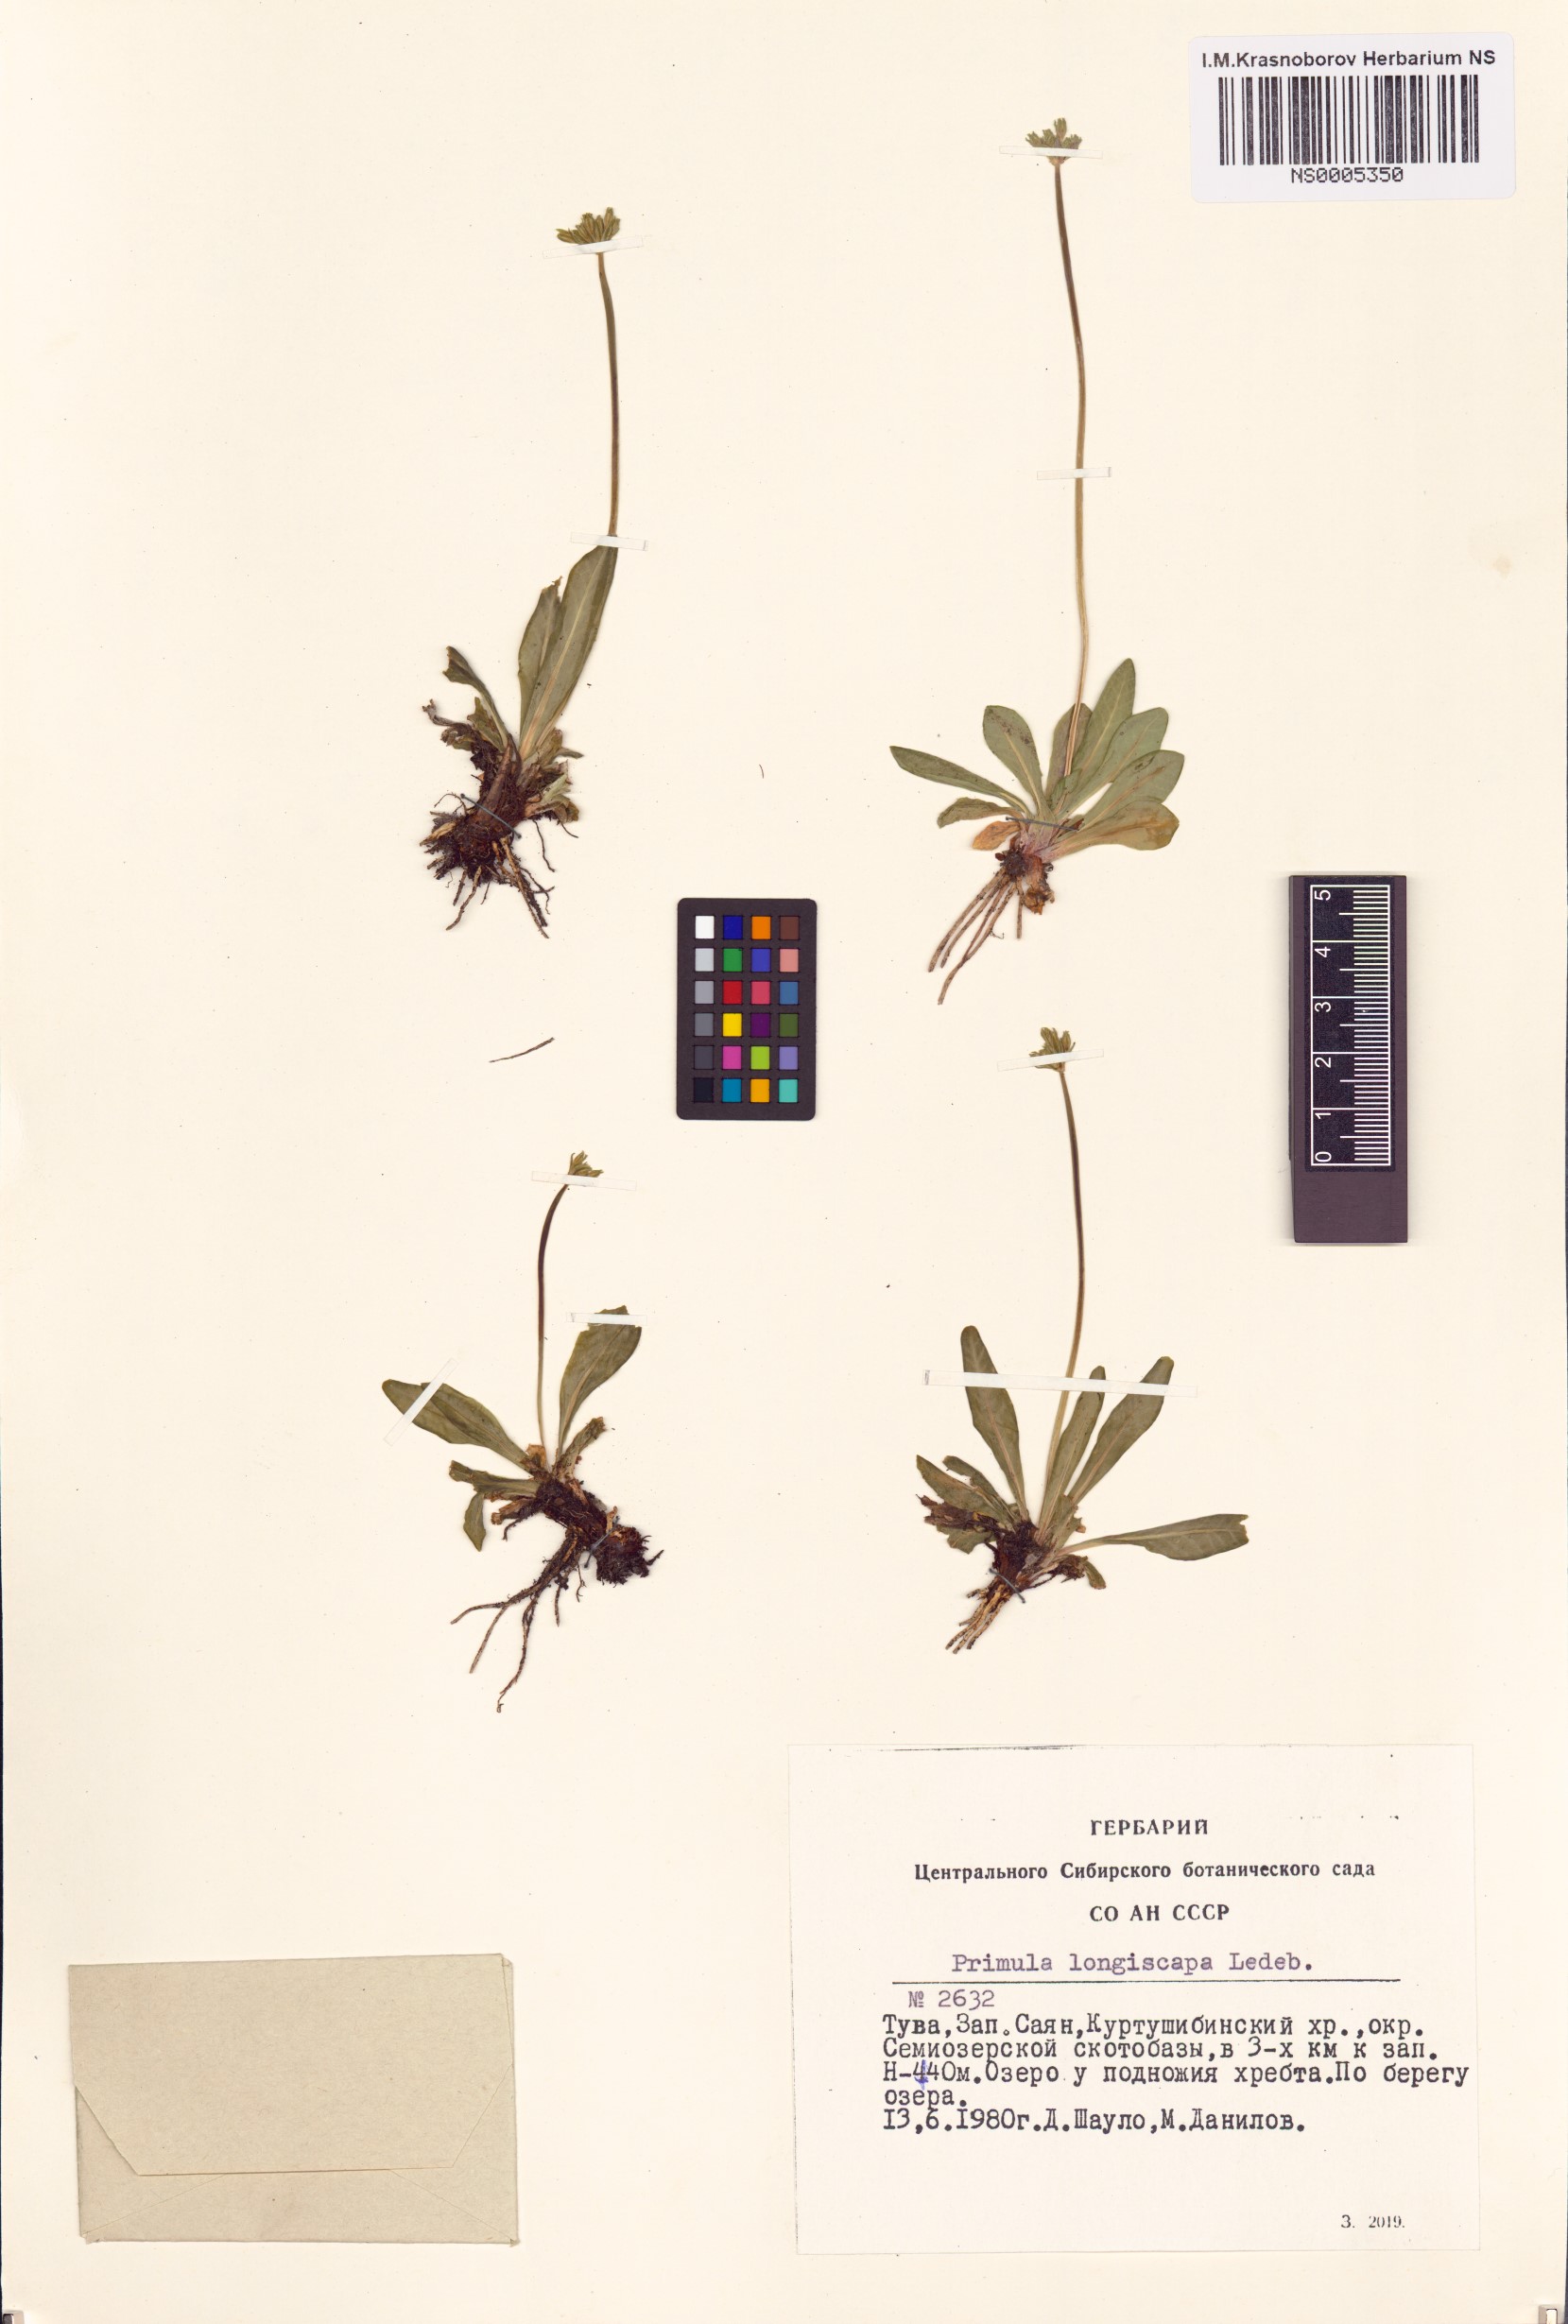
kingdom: Plantae
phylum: Tracheophyta
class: Magnoliopsida
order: Ericales
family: Primulaceae
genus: Primula
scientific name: Primula longiscapa
